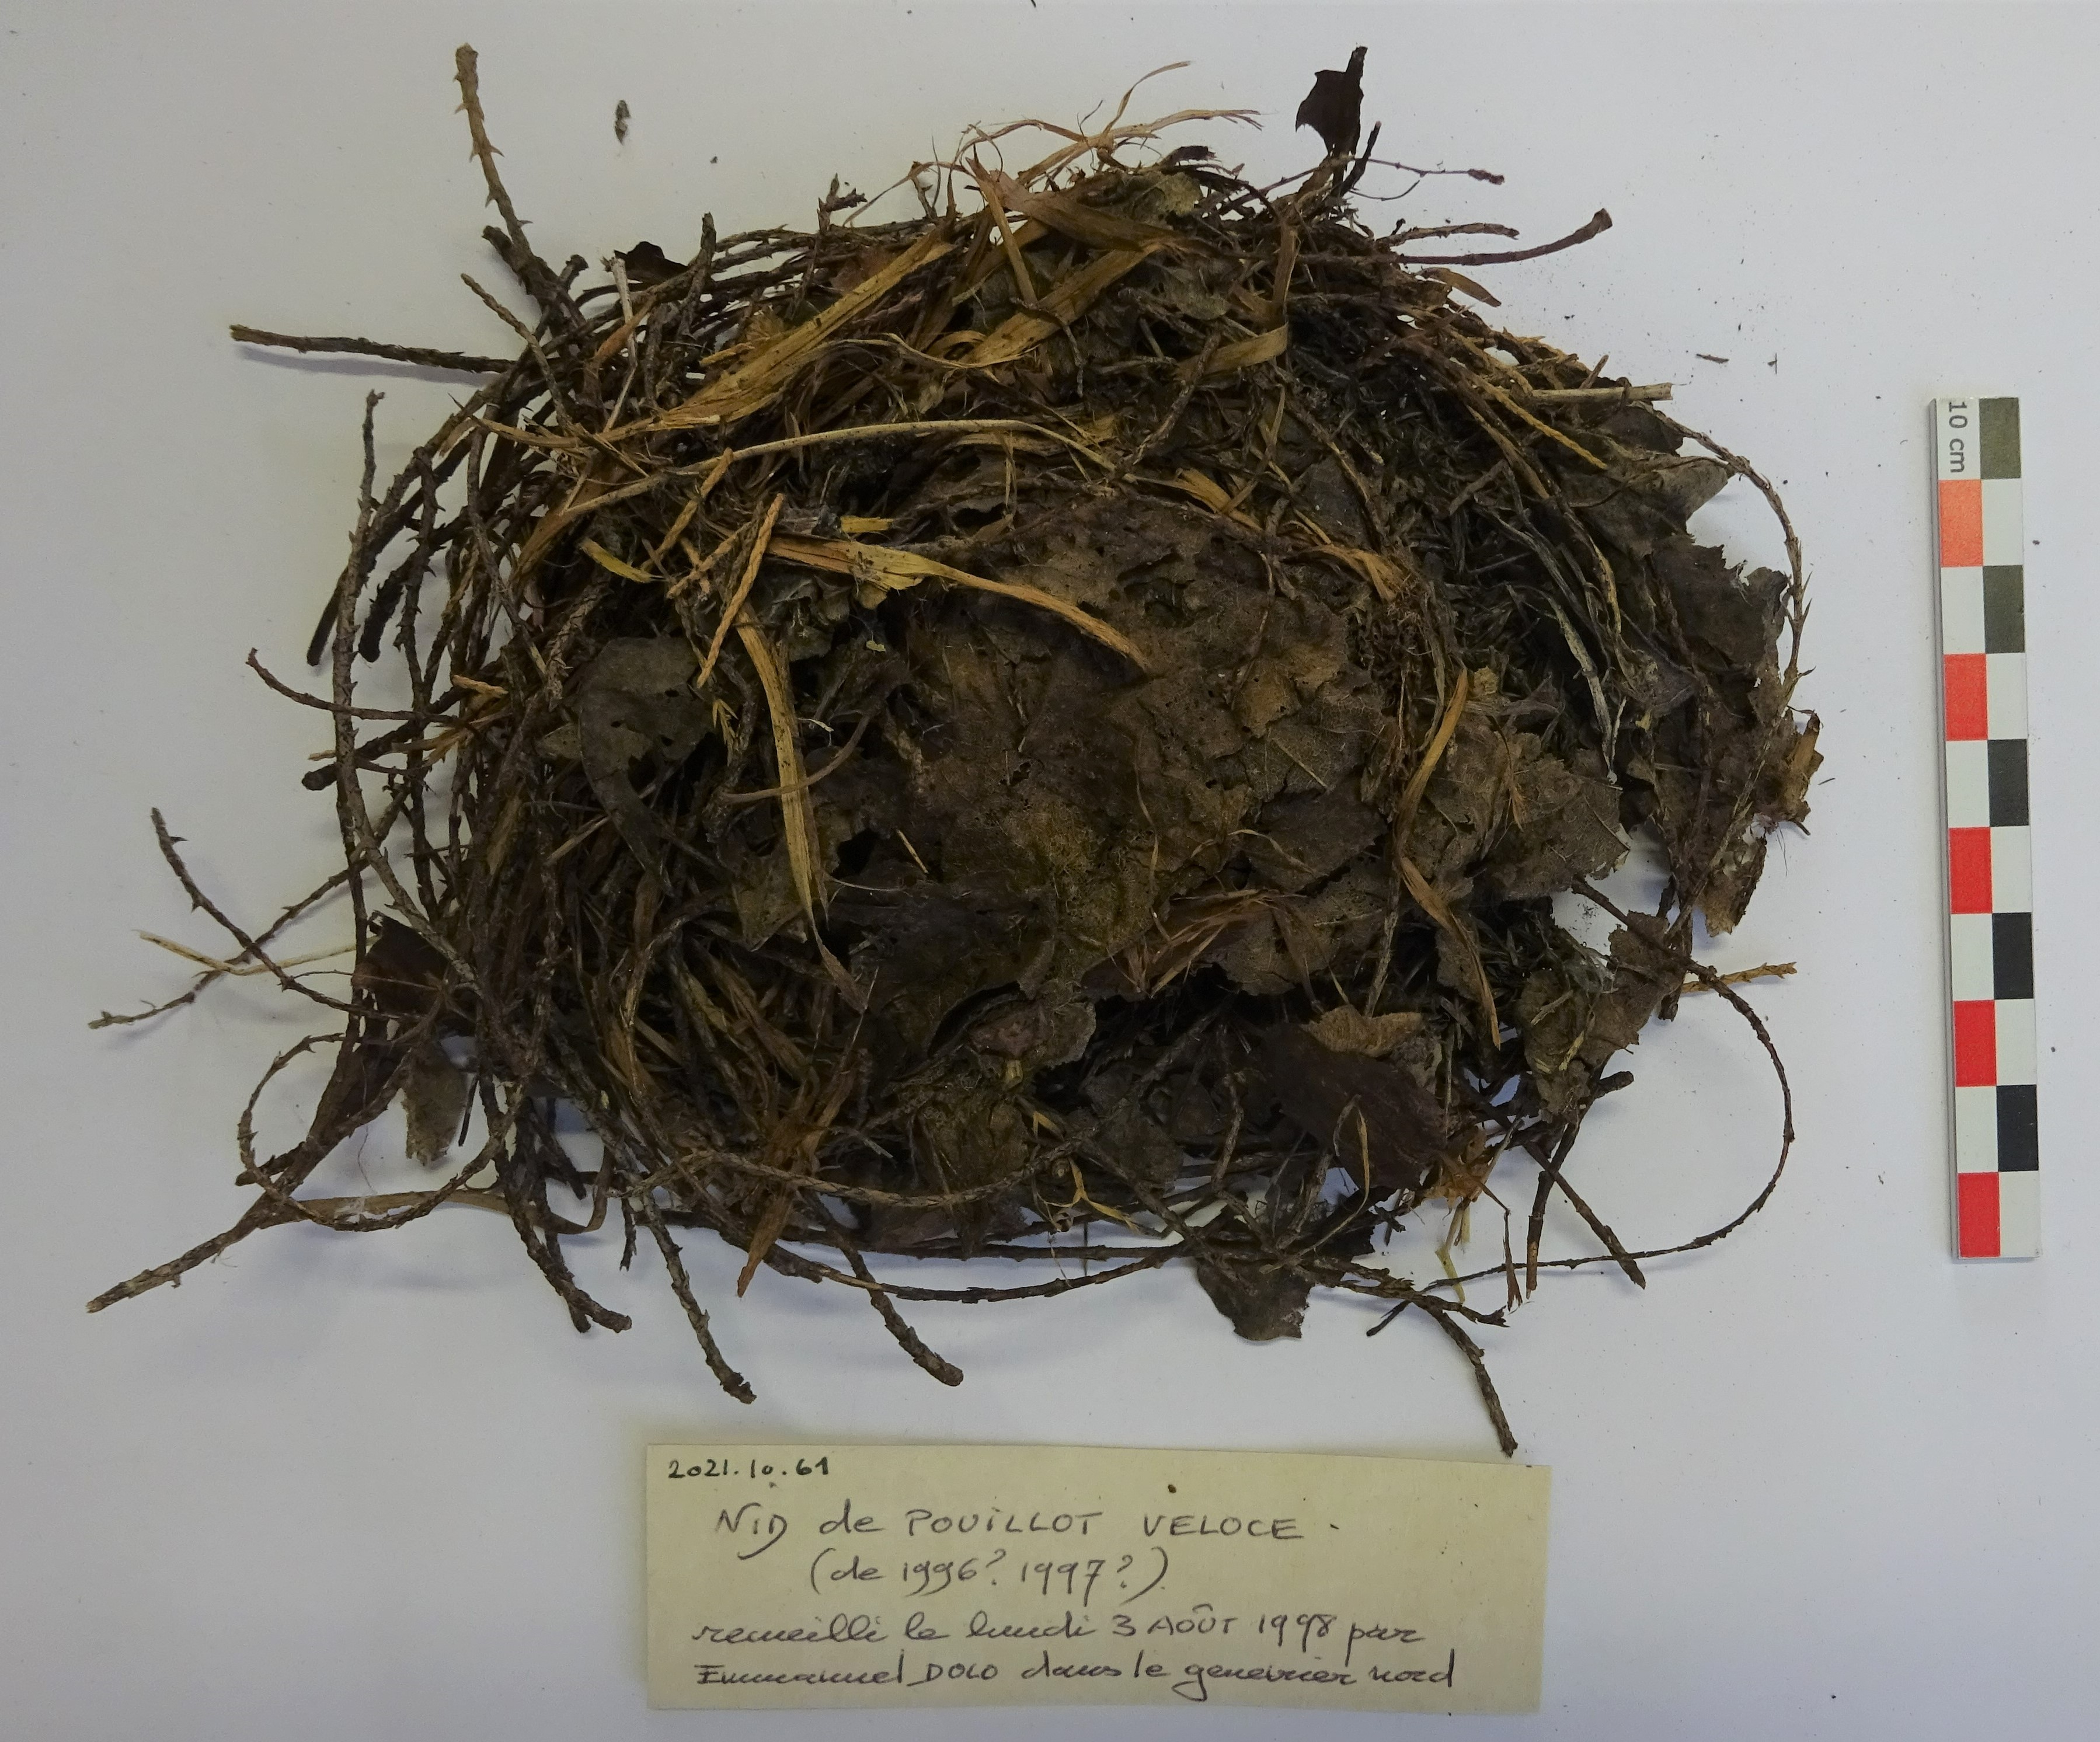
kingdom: Animalia
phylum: Chordata
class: Aves
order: Passeriformes
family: Phylloscopidae
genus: Phylloscopus
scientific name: Phylloscopus collybita
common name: Common chiffchaff
